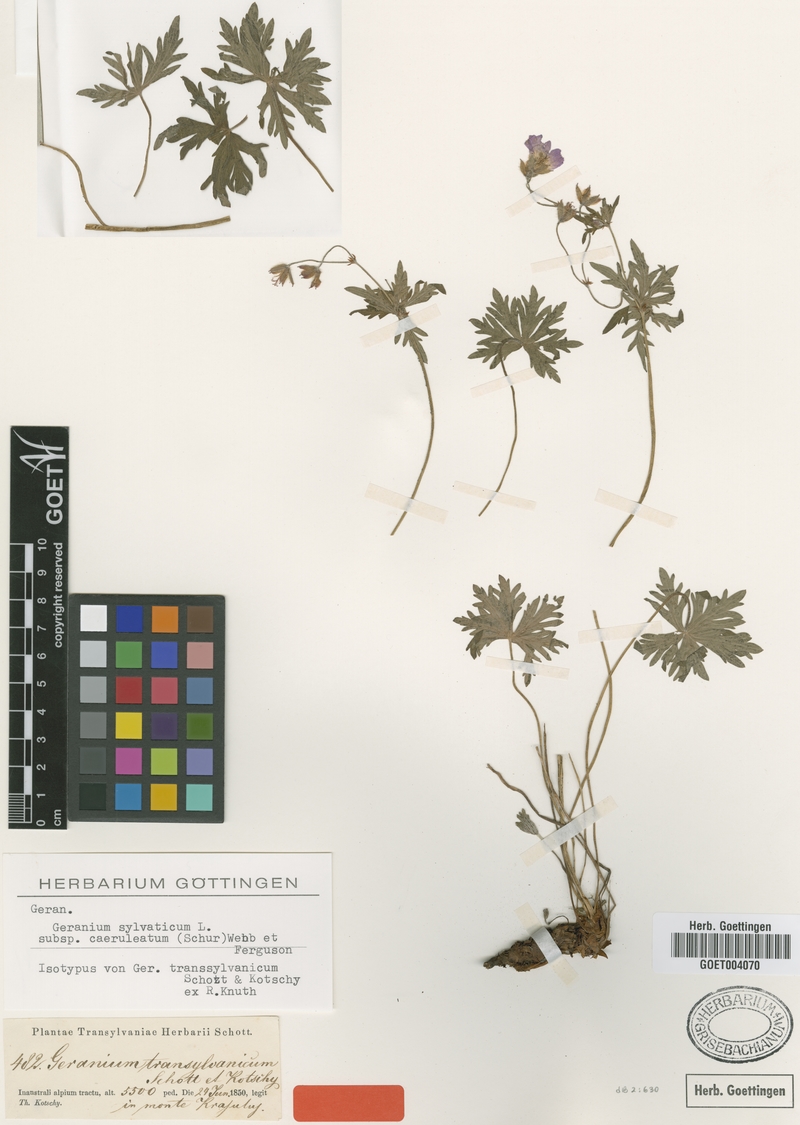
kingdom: Plantae
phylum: Tracheophyta
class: Magnoliopsida
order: Geraniales
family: Geraniaceae
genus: Geranium
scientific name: Geranium caeruleatum
